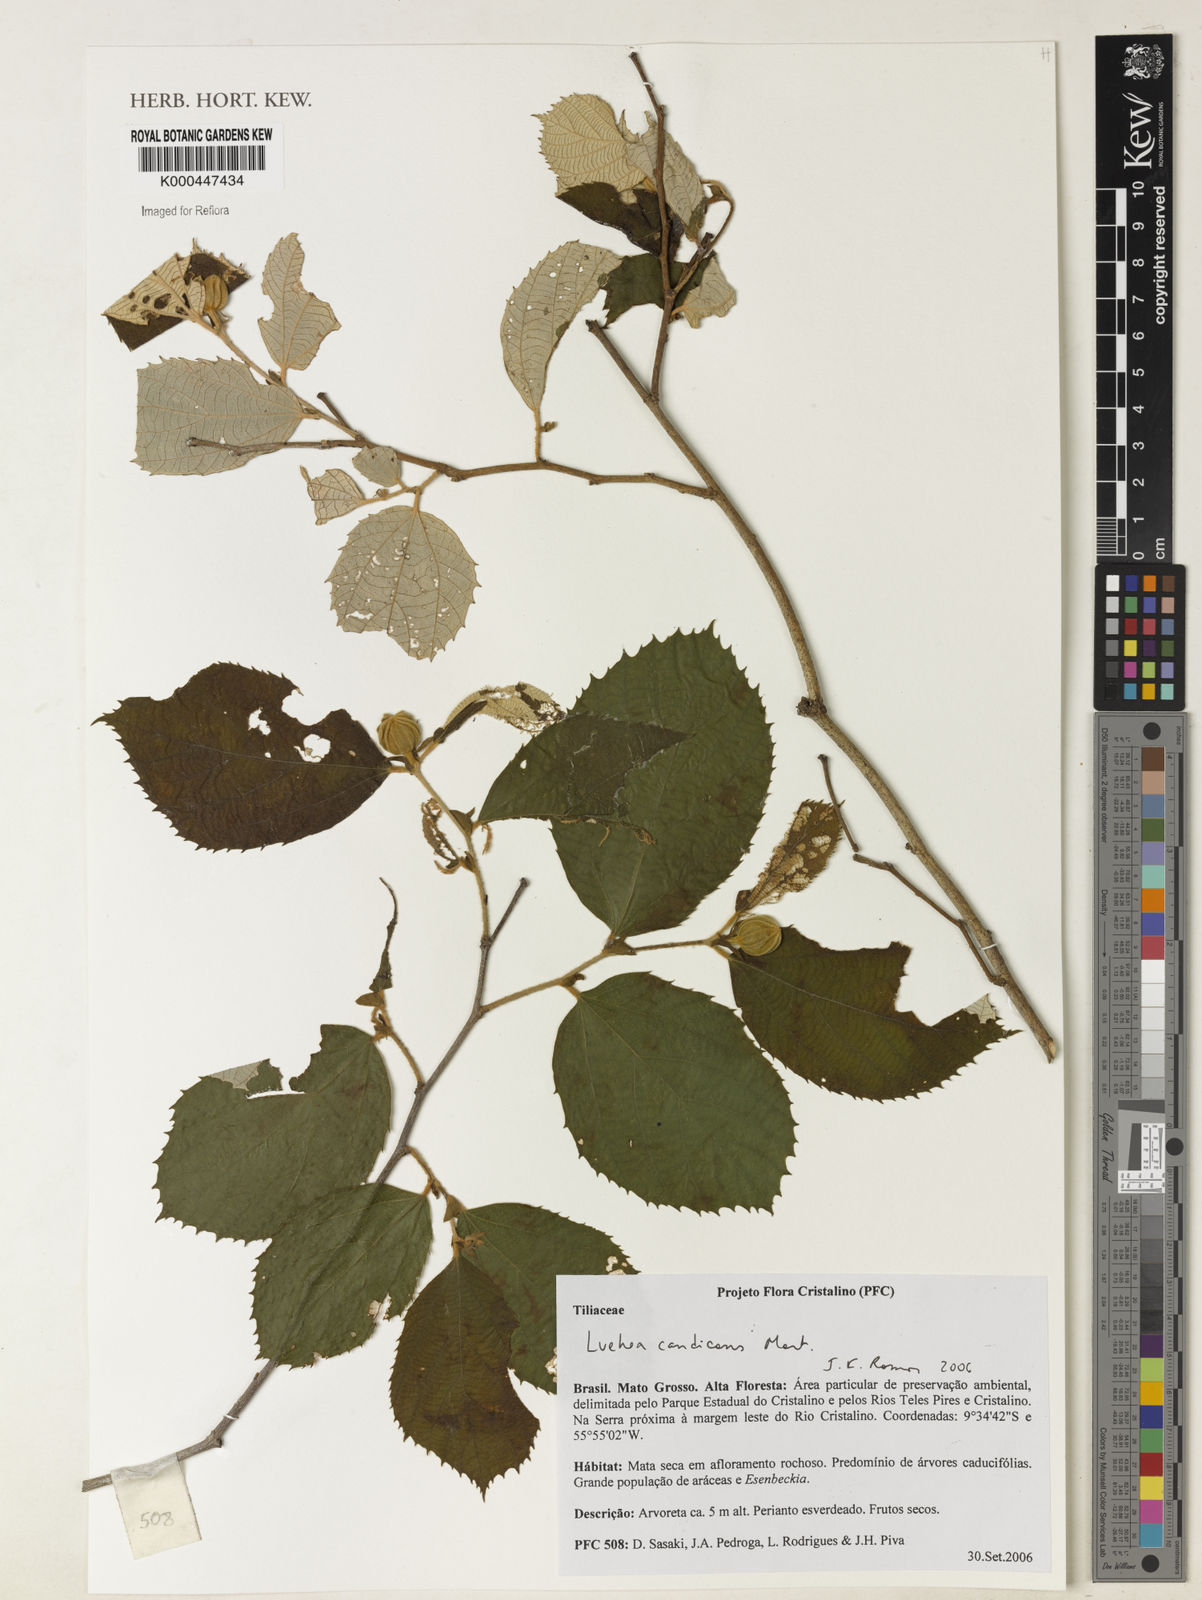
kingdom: Plantae
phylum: Tracheophyta
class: Magnoliopsida
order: Malvales
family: Malvaceae
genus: Luehea
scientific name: Luehea candicans
